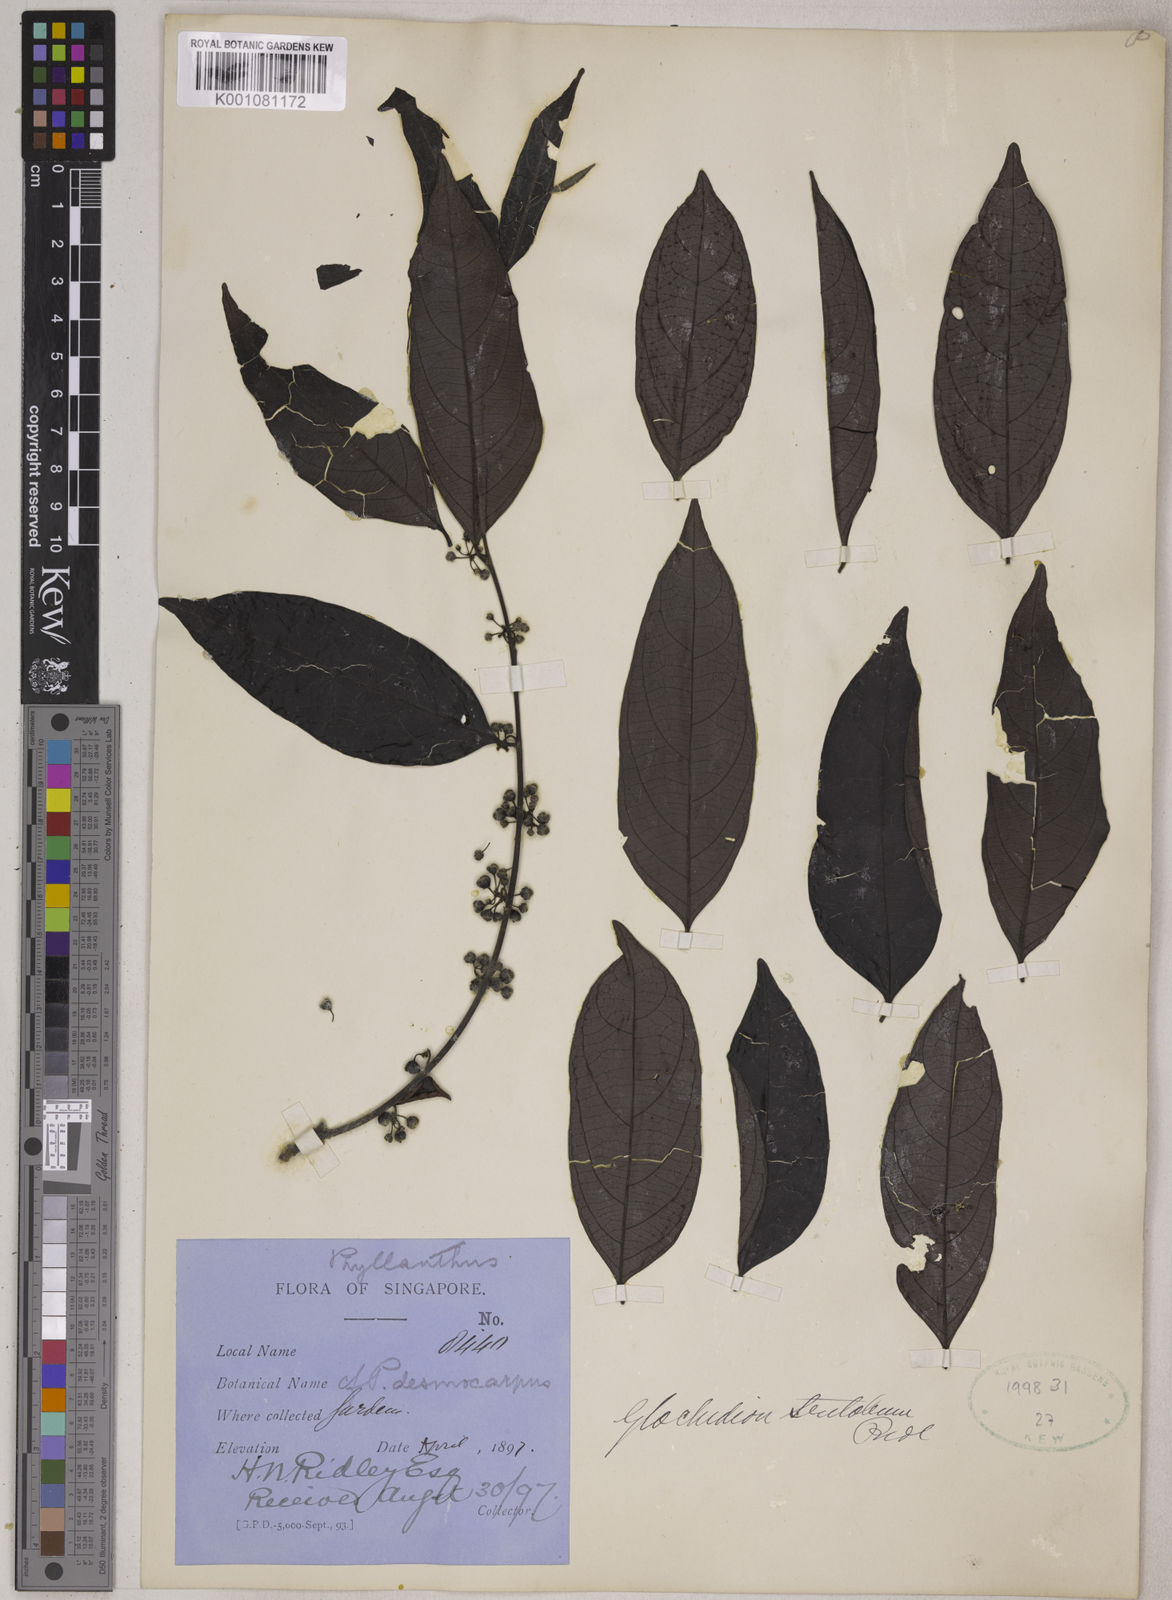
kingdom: Plantae
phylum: Tracheophyta
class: Magnoliopsida
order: Malpighiales
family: Phyllanthaceae
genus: Glochidion
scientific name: Glochidion
